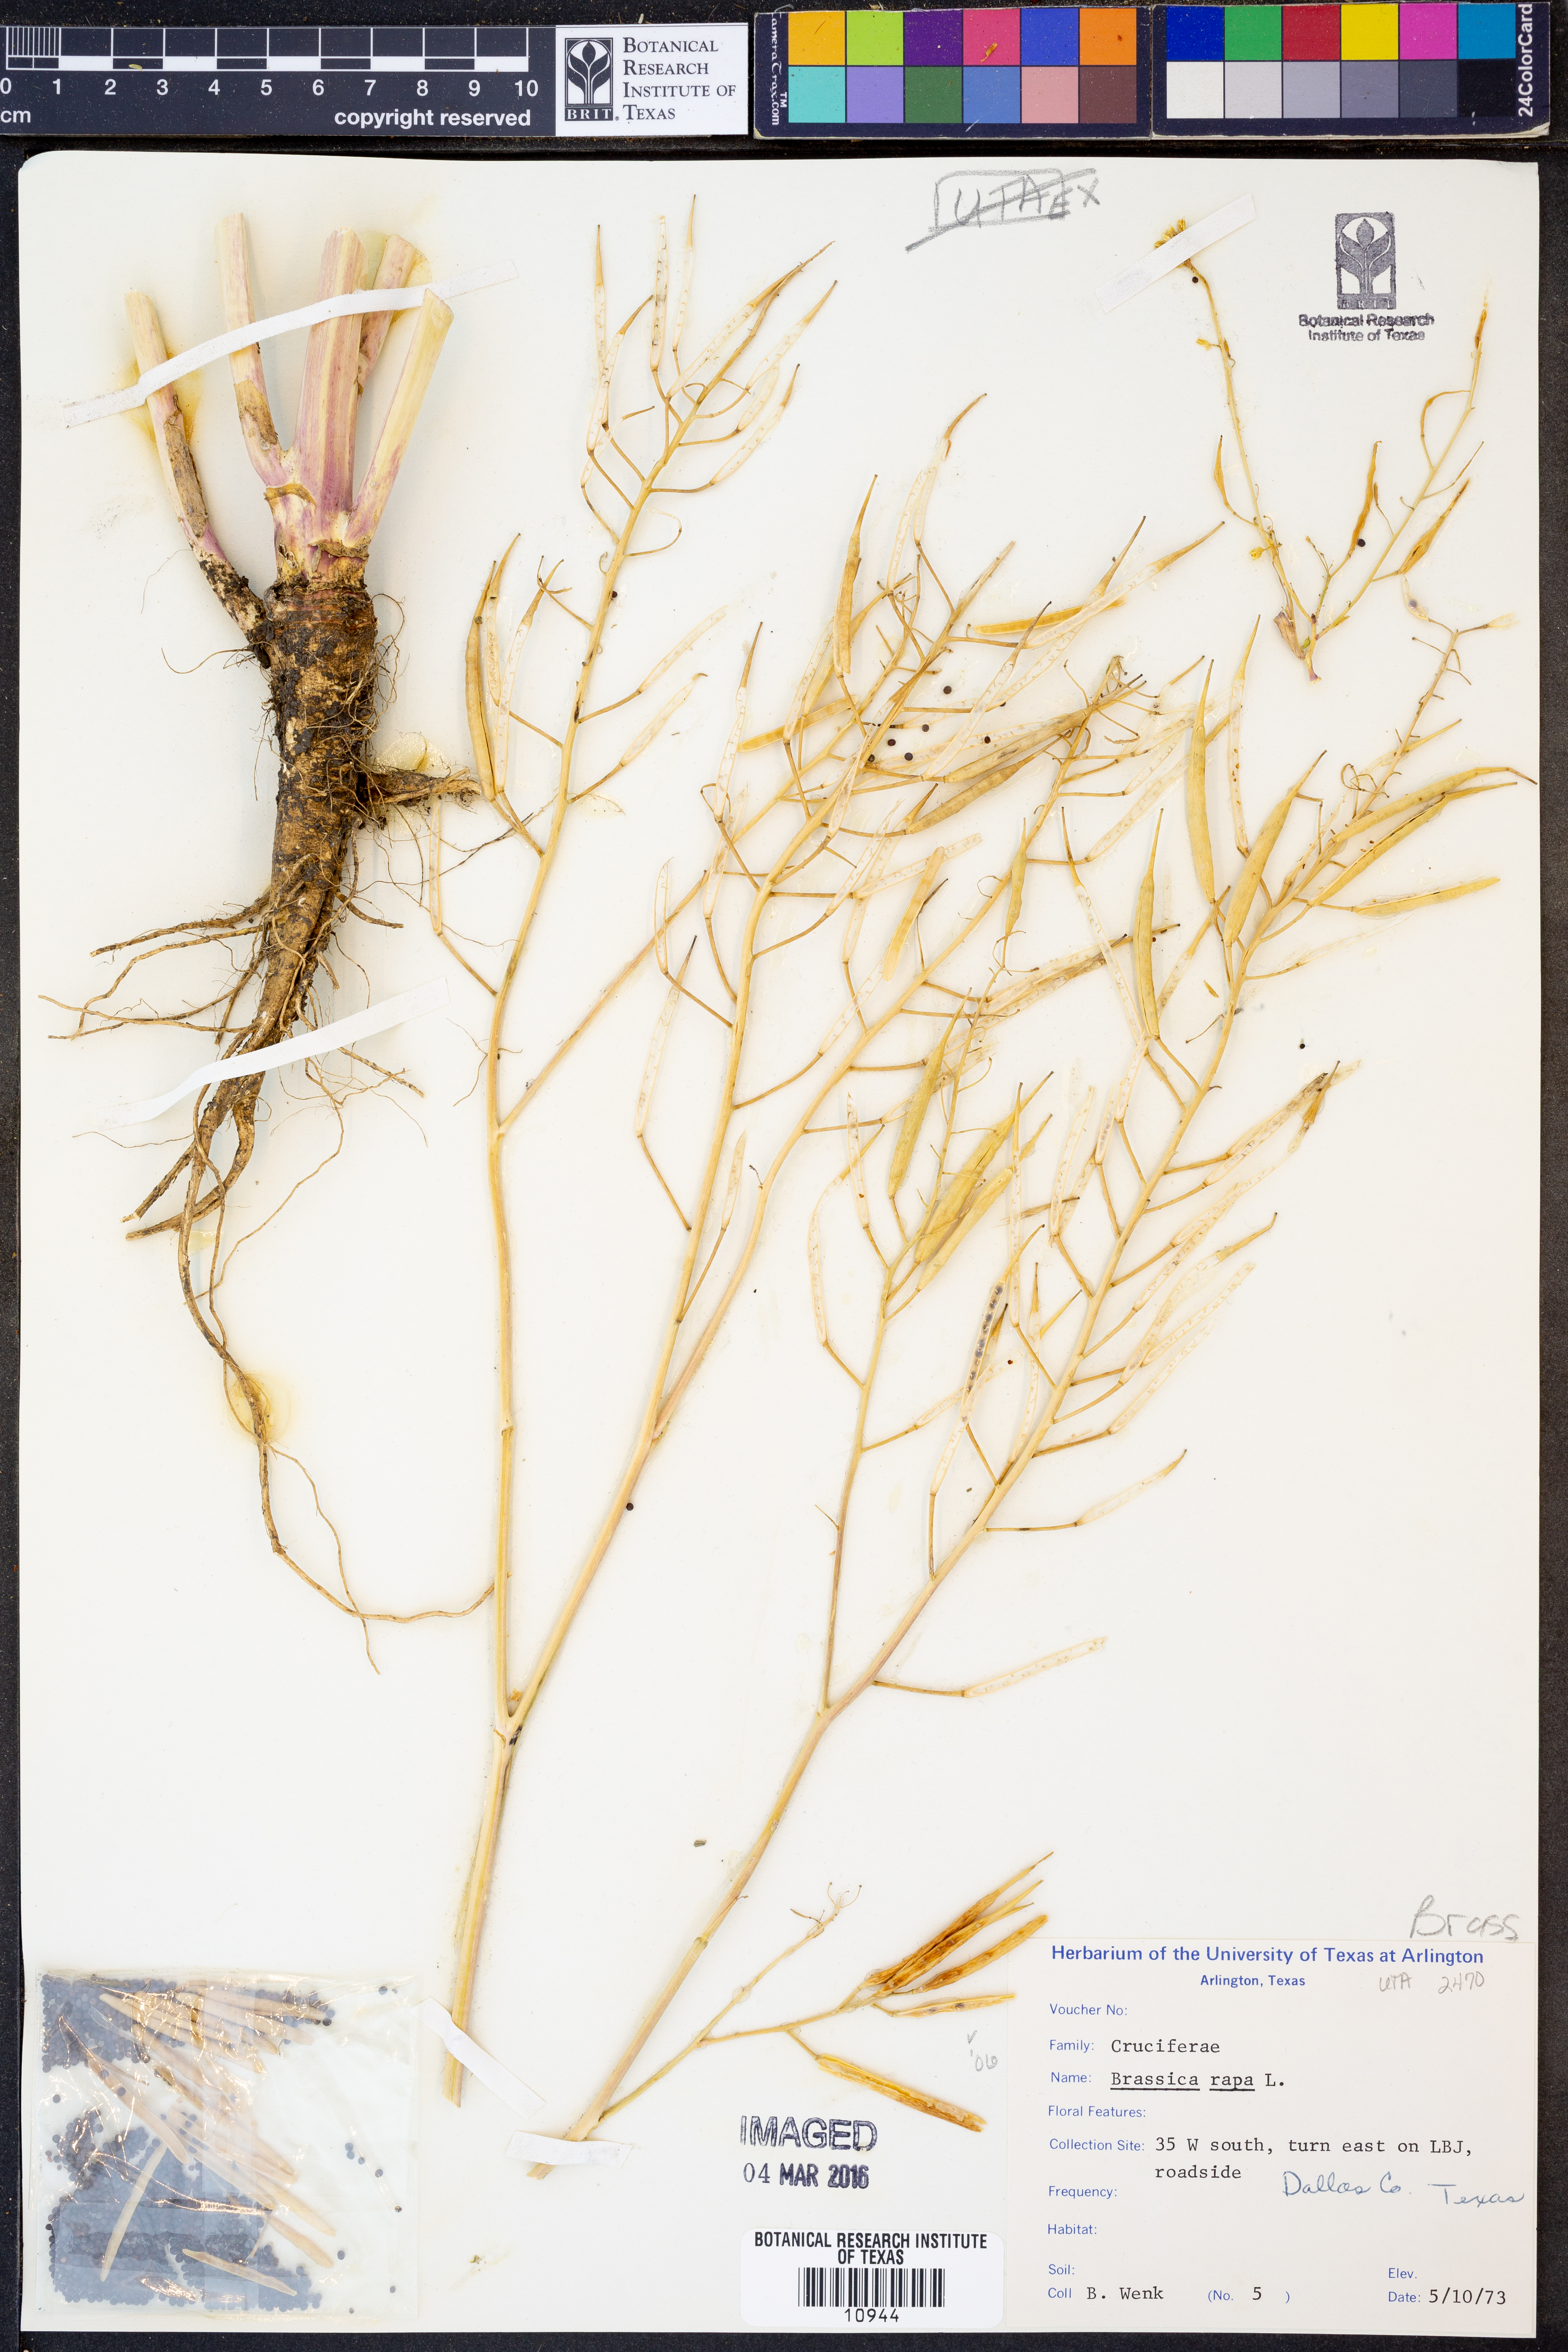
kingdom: Plantae
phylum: Tracheophyta
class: Magnoliopsida
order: Brassicales
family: Brassicaceae
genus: Brassica
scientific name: Brassica rapa
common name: Field mustard
